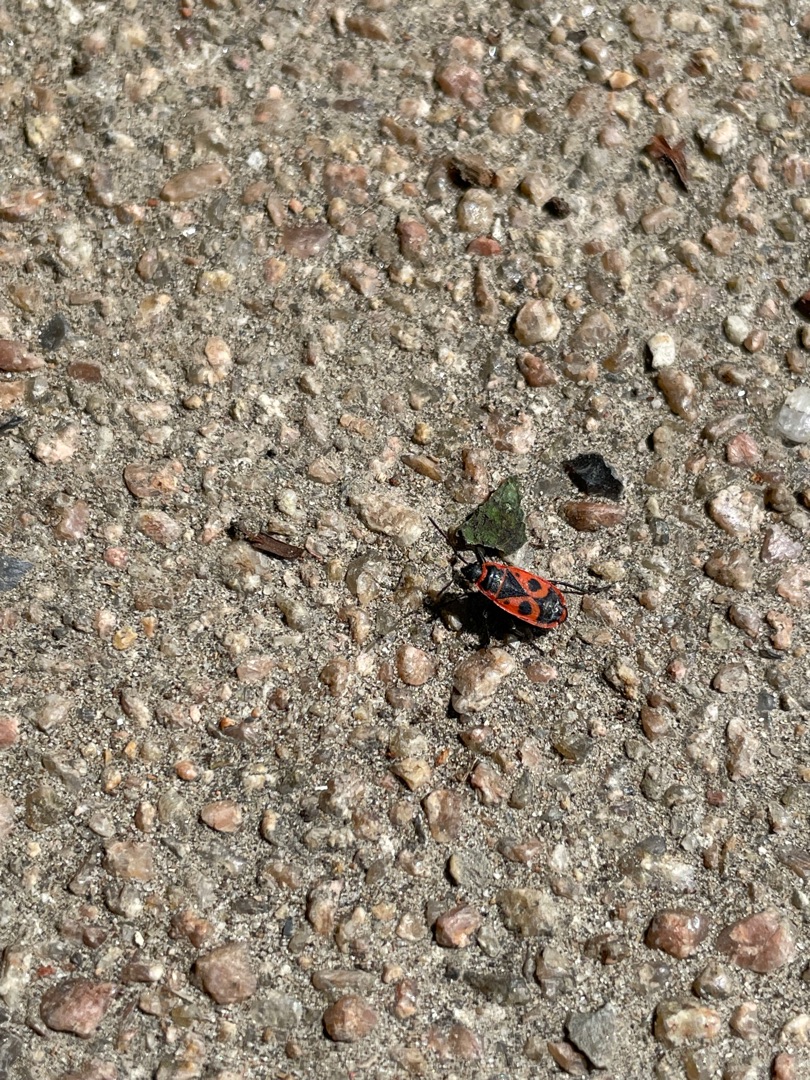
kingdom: Animalia
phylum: Arthropoda
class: Insecta
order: Hemiptera
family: Pyrrhocoridae
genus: Pyrrhocoris
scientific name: Pyrrhocoris apterus
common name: Ildtæge
